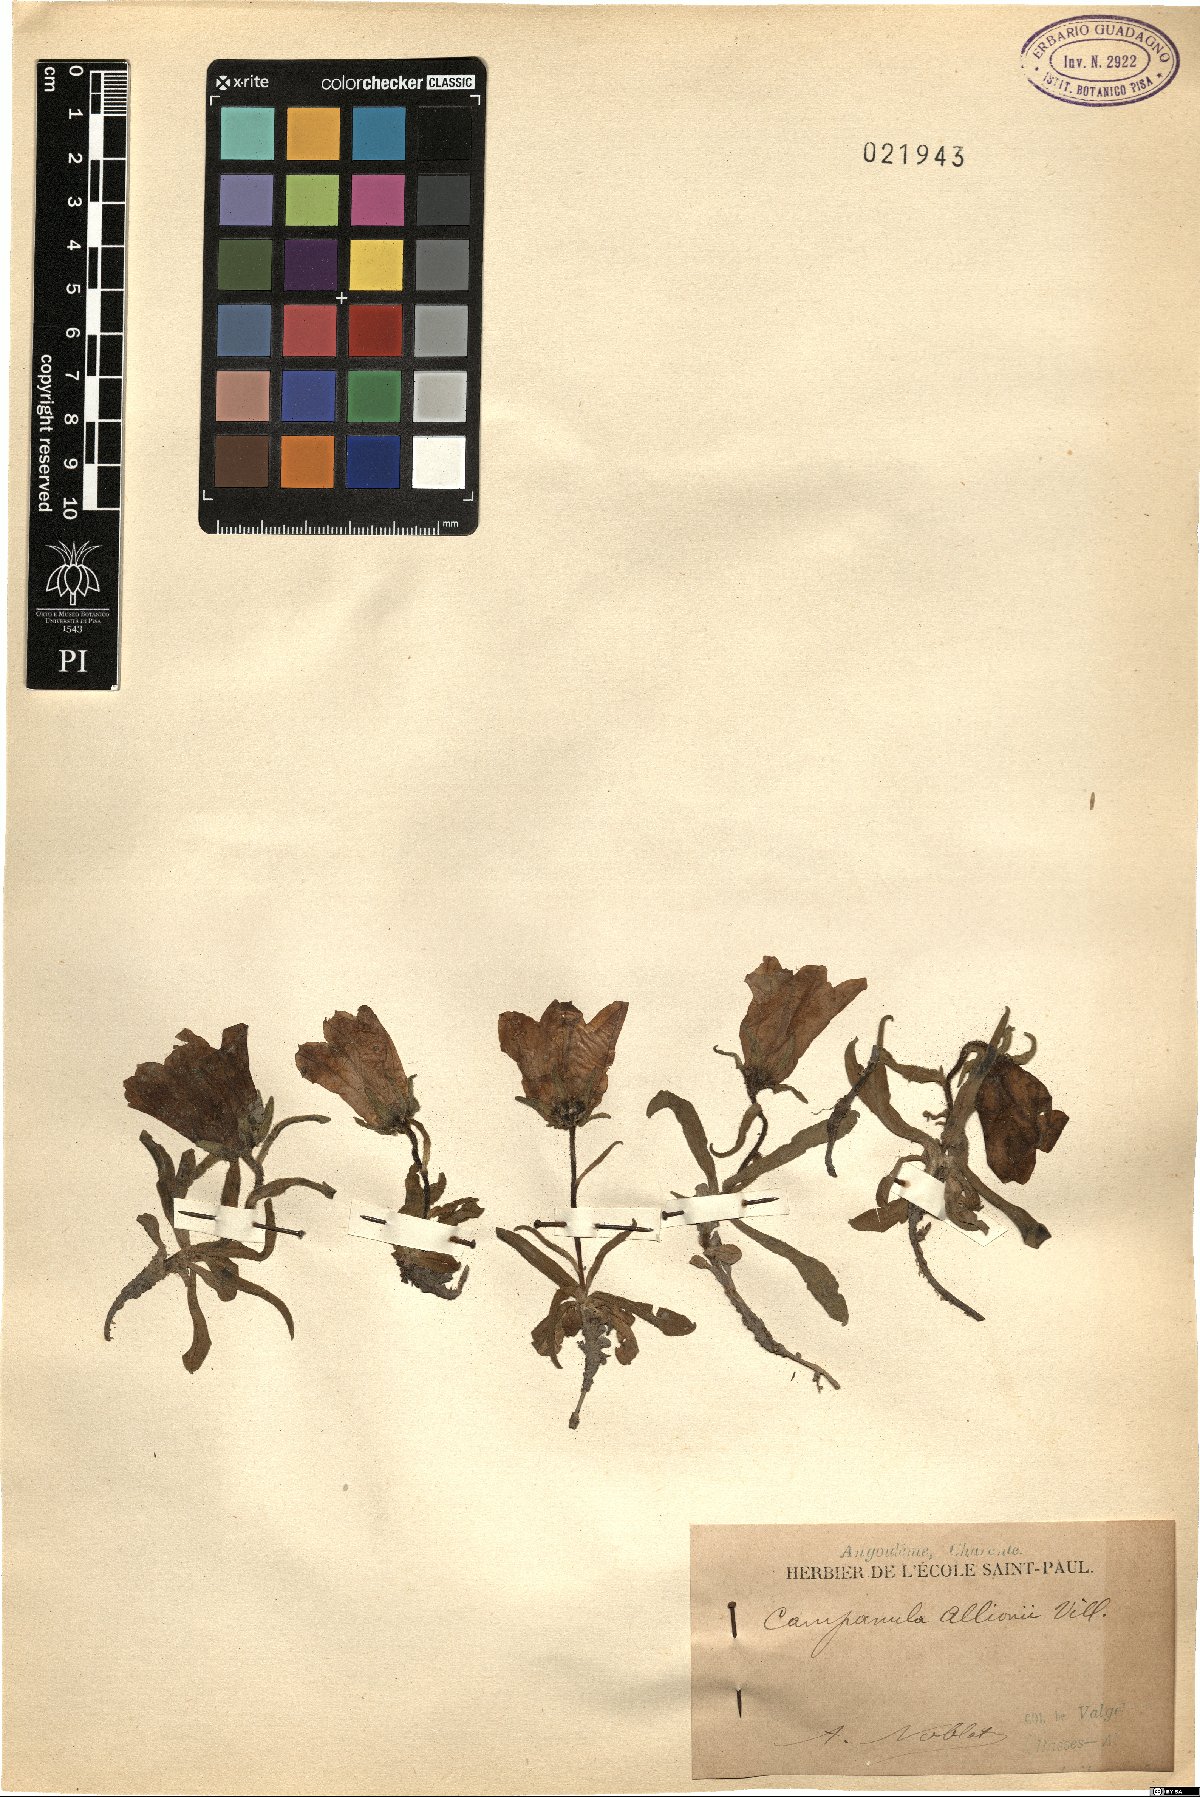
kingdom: Plantae
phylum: Tracheophyta
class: Magnoliopsida
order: Asterales
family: Campanulaceae
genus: Campanula
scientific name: Campanula alpestris
